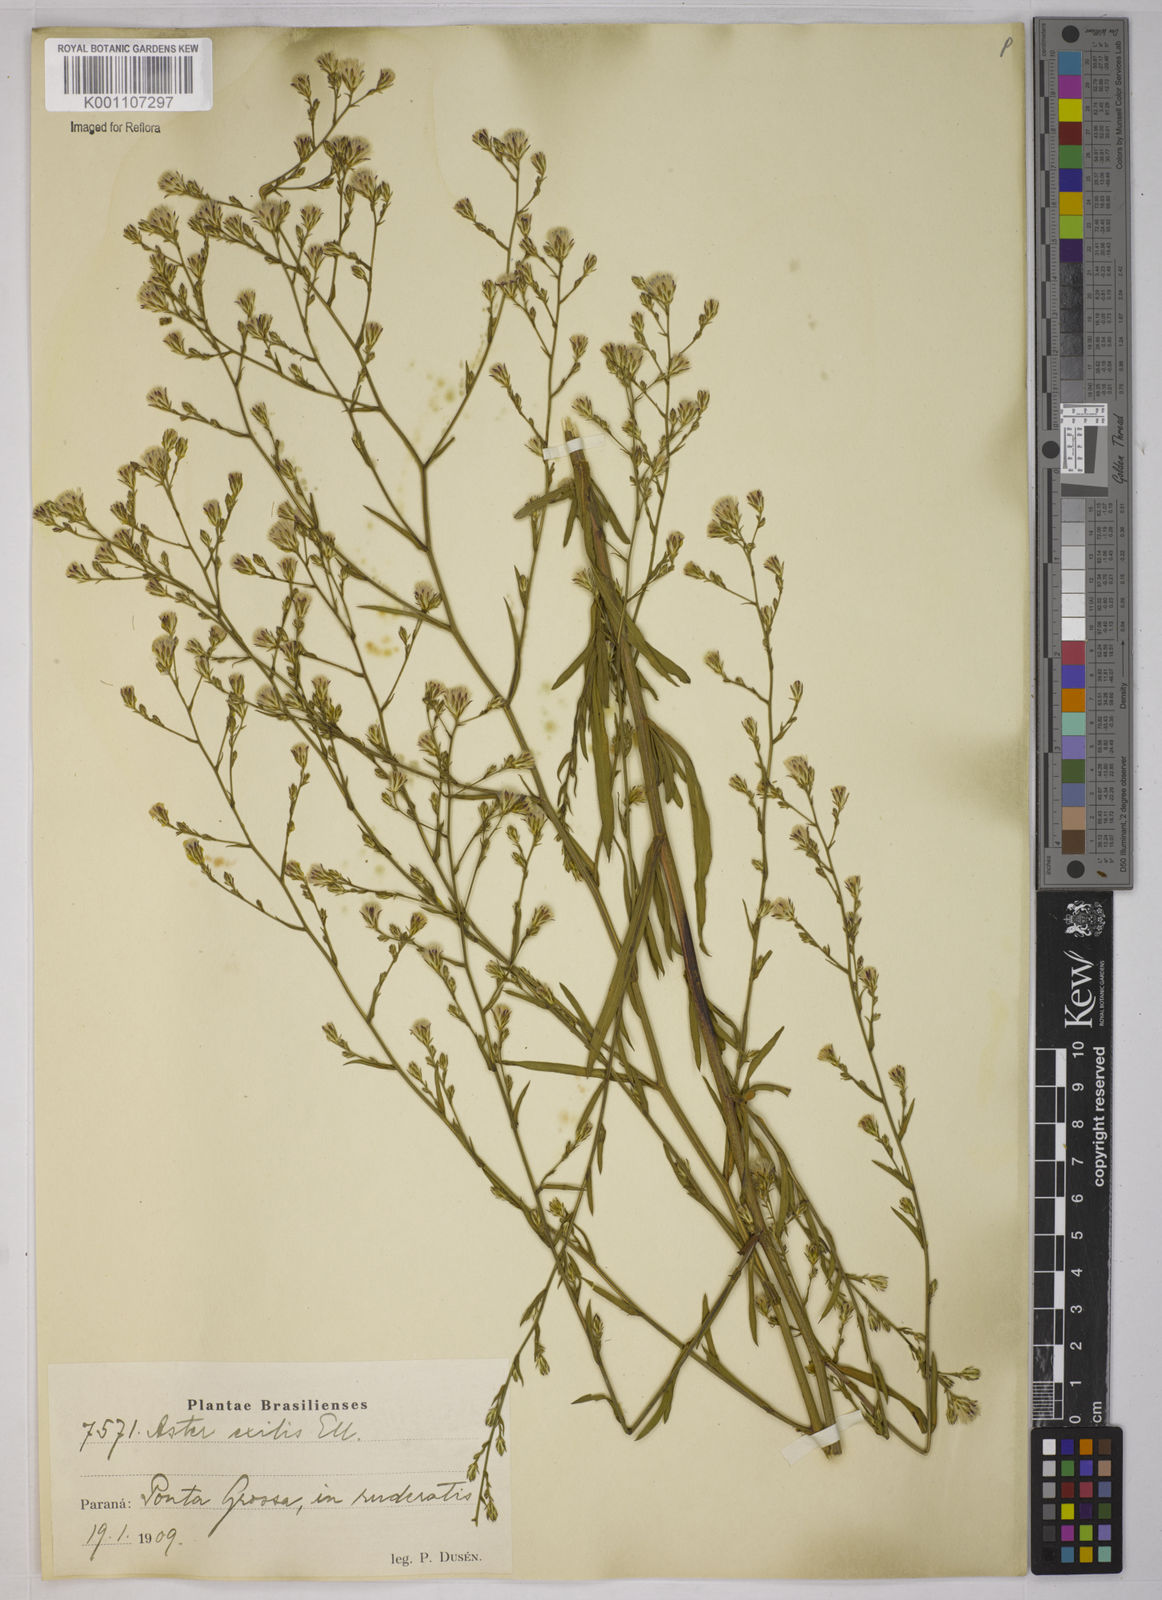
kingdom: Plantae
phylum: Tracheophyta
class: Magnoliopsida
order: Asterales
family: Asteraceae
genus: Symphyotrichum
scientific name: Symphyotrichum
